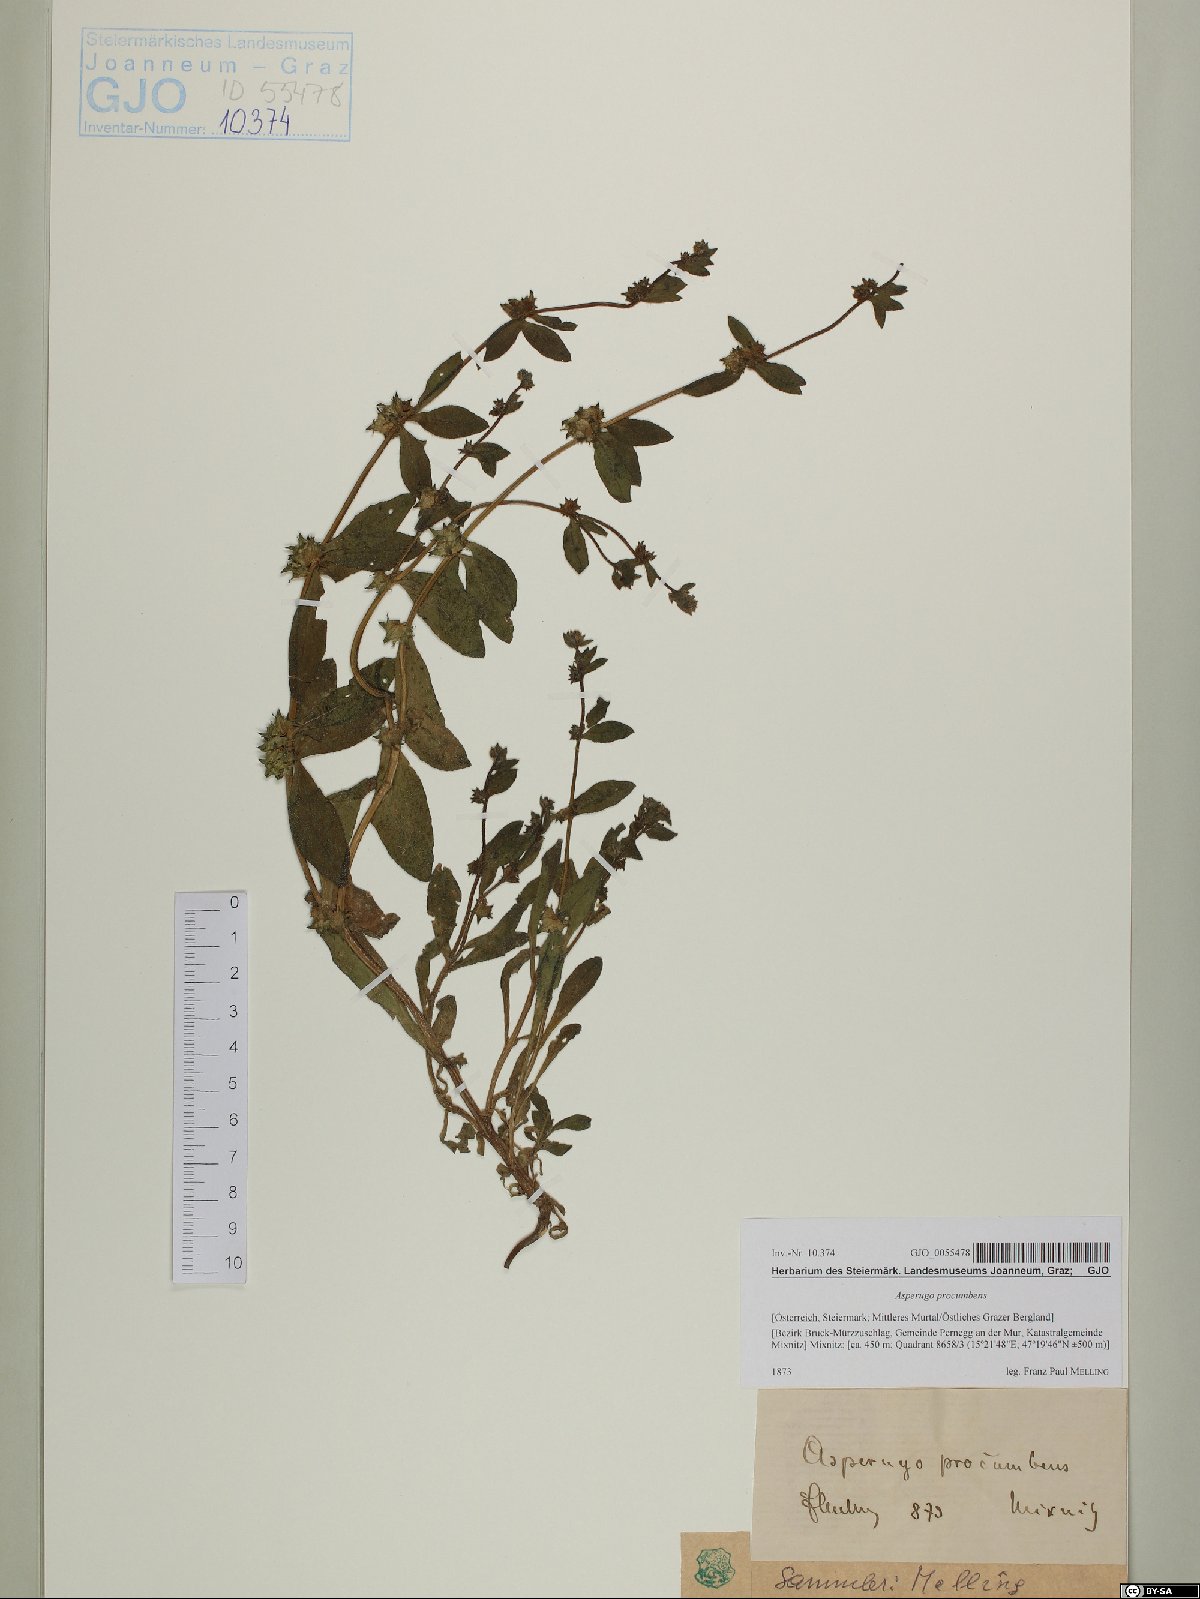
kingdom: Plantae
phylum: Tracheophyta
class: Magnoliopsida
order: Boraginales
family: Boraginaceae
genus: Asperugo
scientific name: Asperugo procumbens
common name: Madwort
